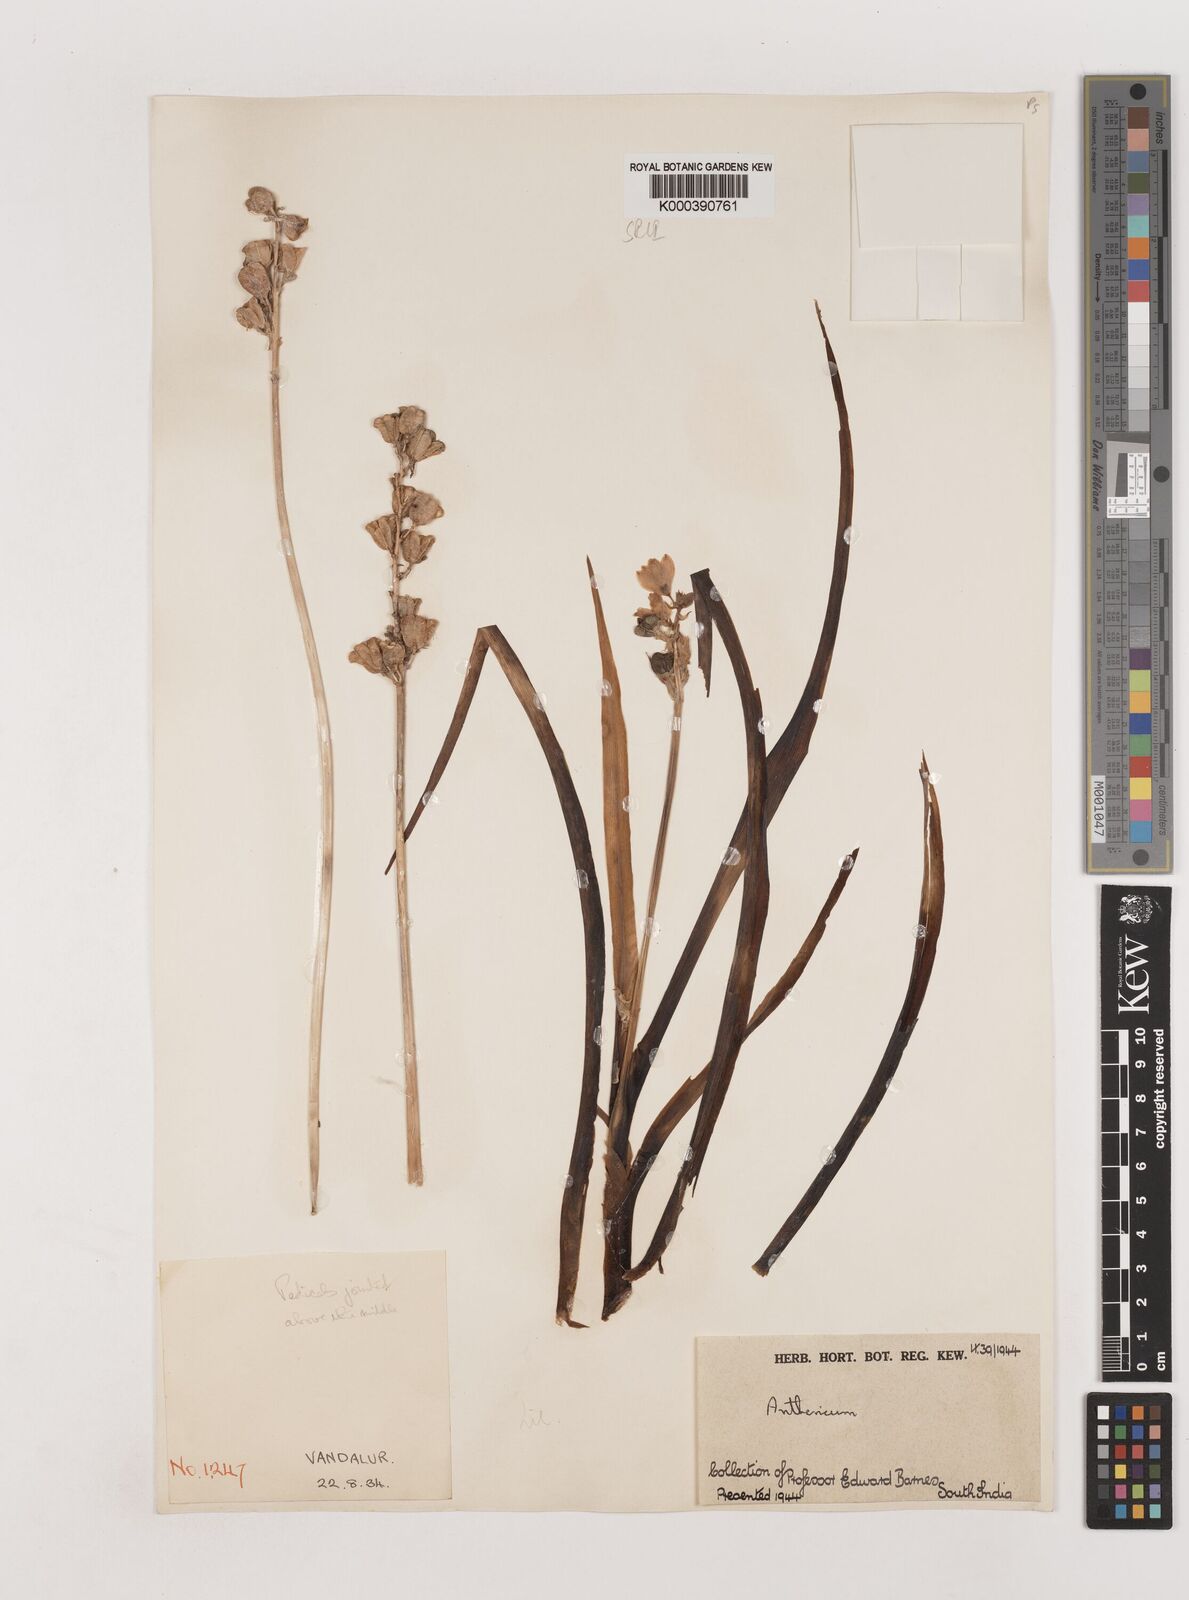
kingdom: Plantae
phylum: Tracheophyta
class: Liliopsida
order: Asparagales
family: Asparagaceae
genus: Chlorophytum
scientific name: Chlorophytum tuberosum
